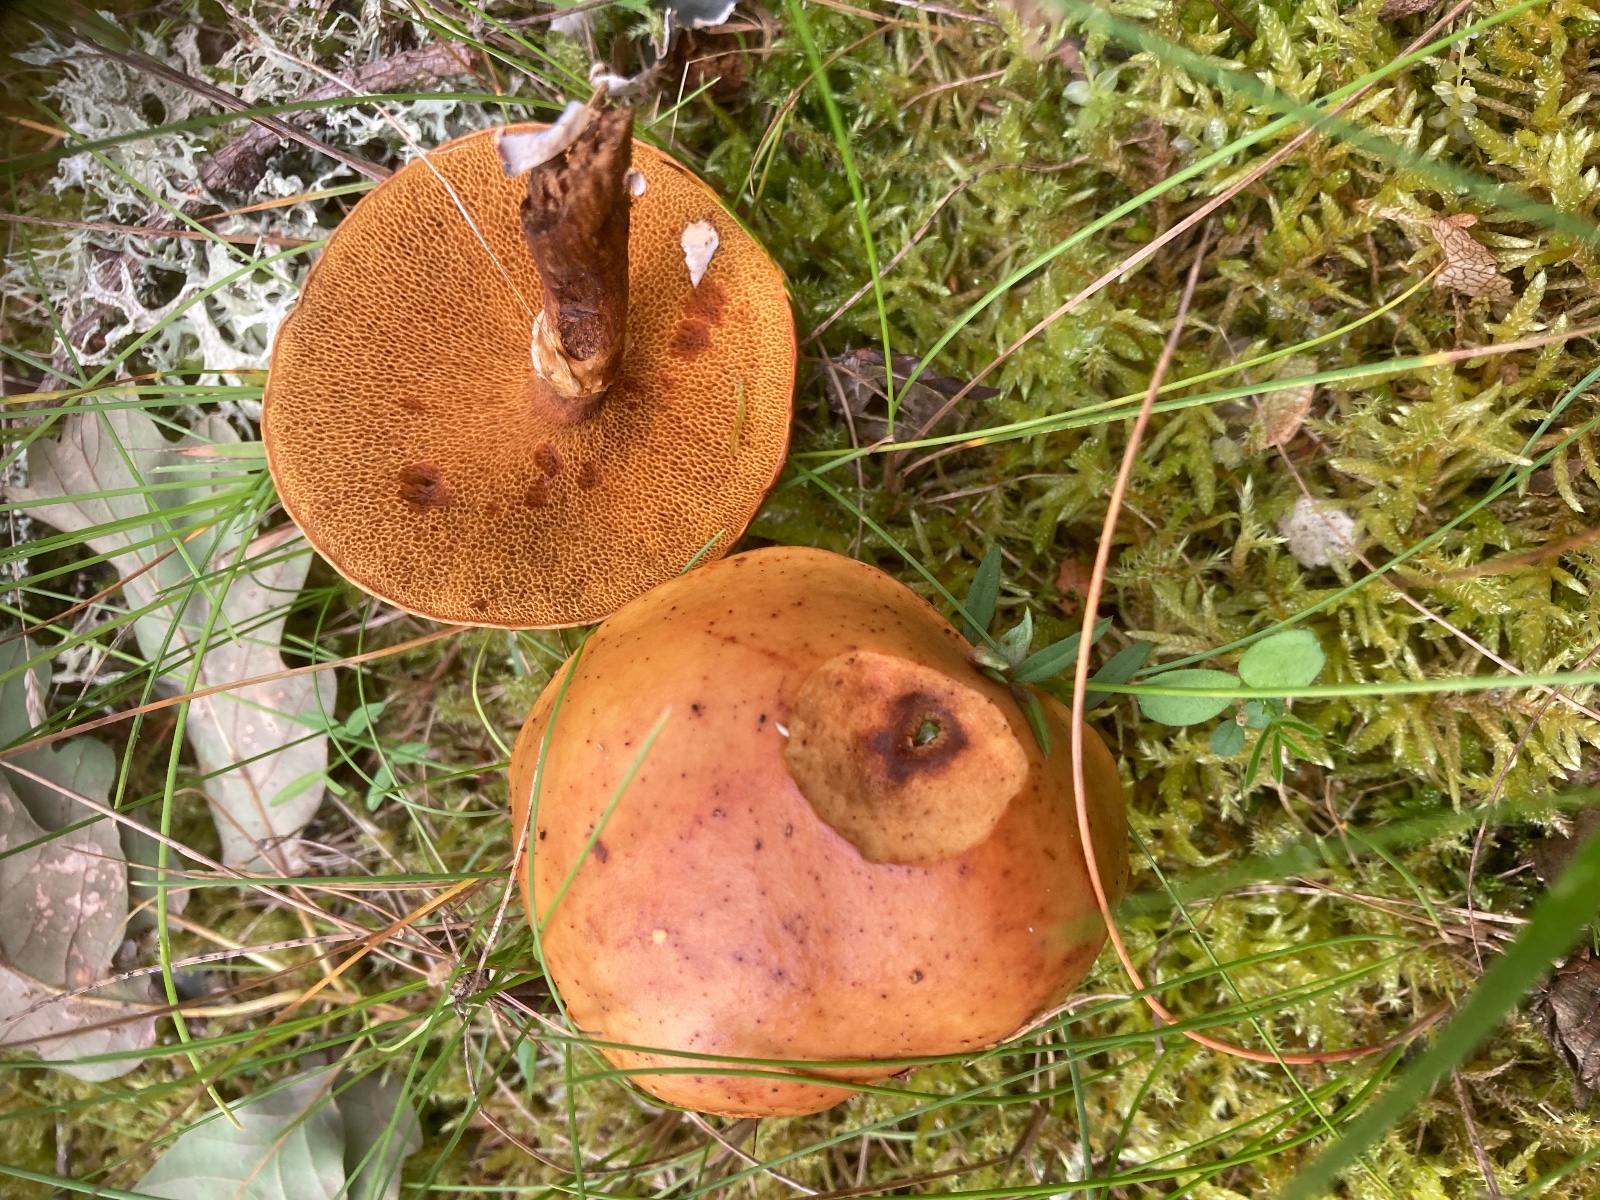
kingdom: Fungi
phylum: Basidiomycota
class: Agaricomycetes
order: Boletales
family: Suillaceae
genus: Suillus
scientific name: Suillus
